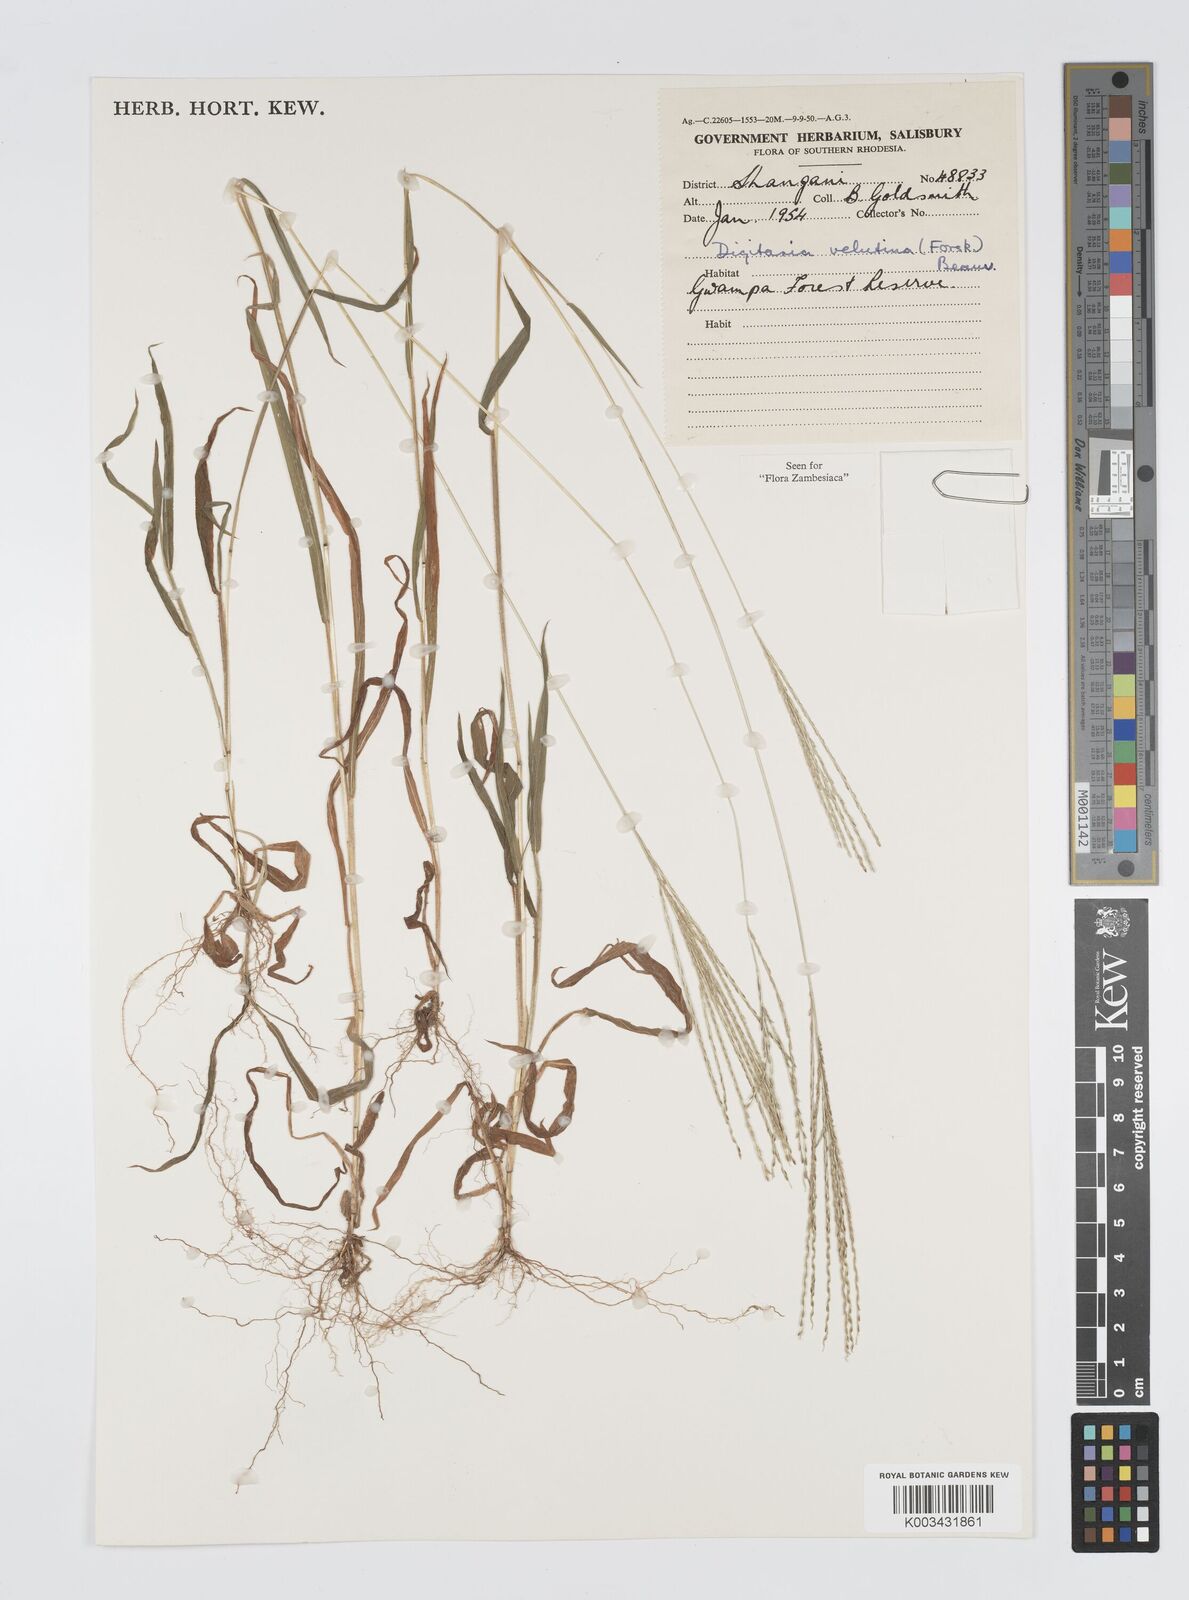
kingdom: Plantae
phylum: Tracheophyta
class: Liliopsida
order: Poales
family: Poaceae
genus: Digitaria
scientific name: Digitaria velutina
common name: Long-plume finger grass
